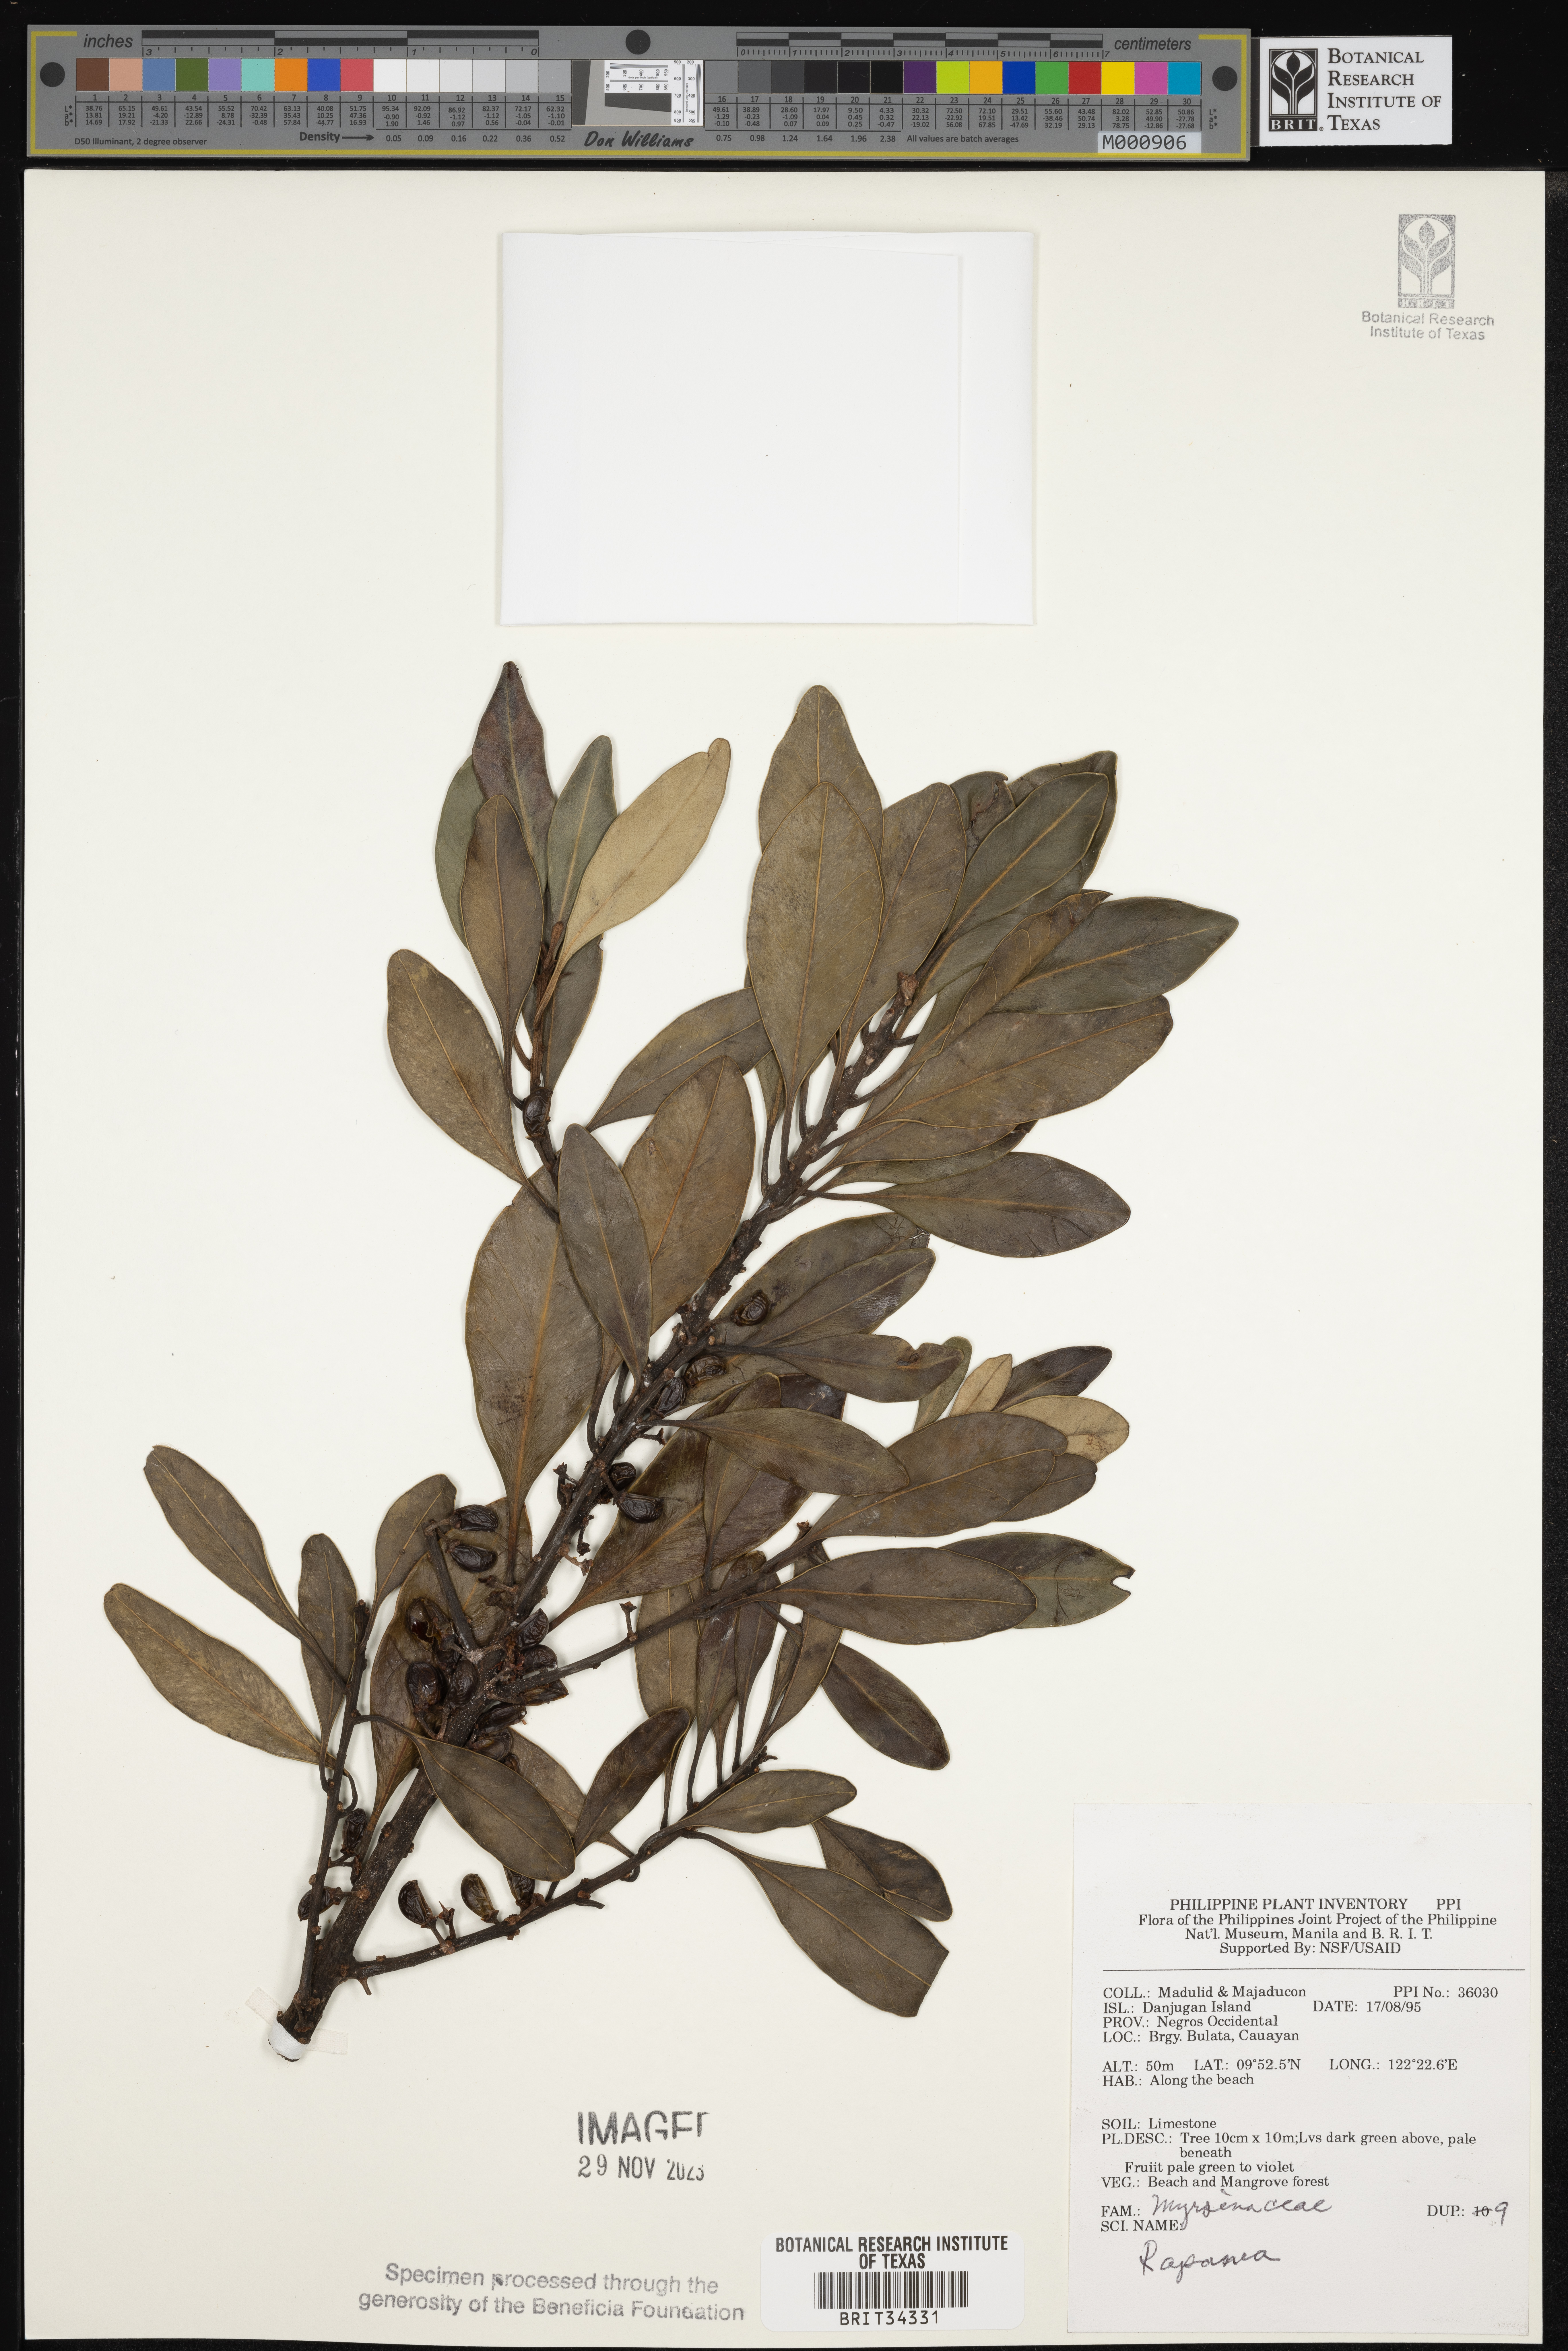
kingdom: Plantae
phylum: Tracheophyta
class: Magnoliopsida
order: Ericales
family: Primulaceae
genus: Myrsine
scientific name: Myrsine
